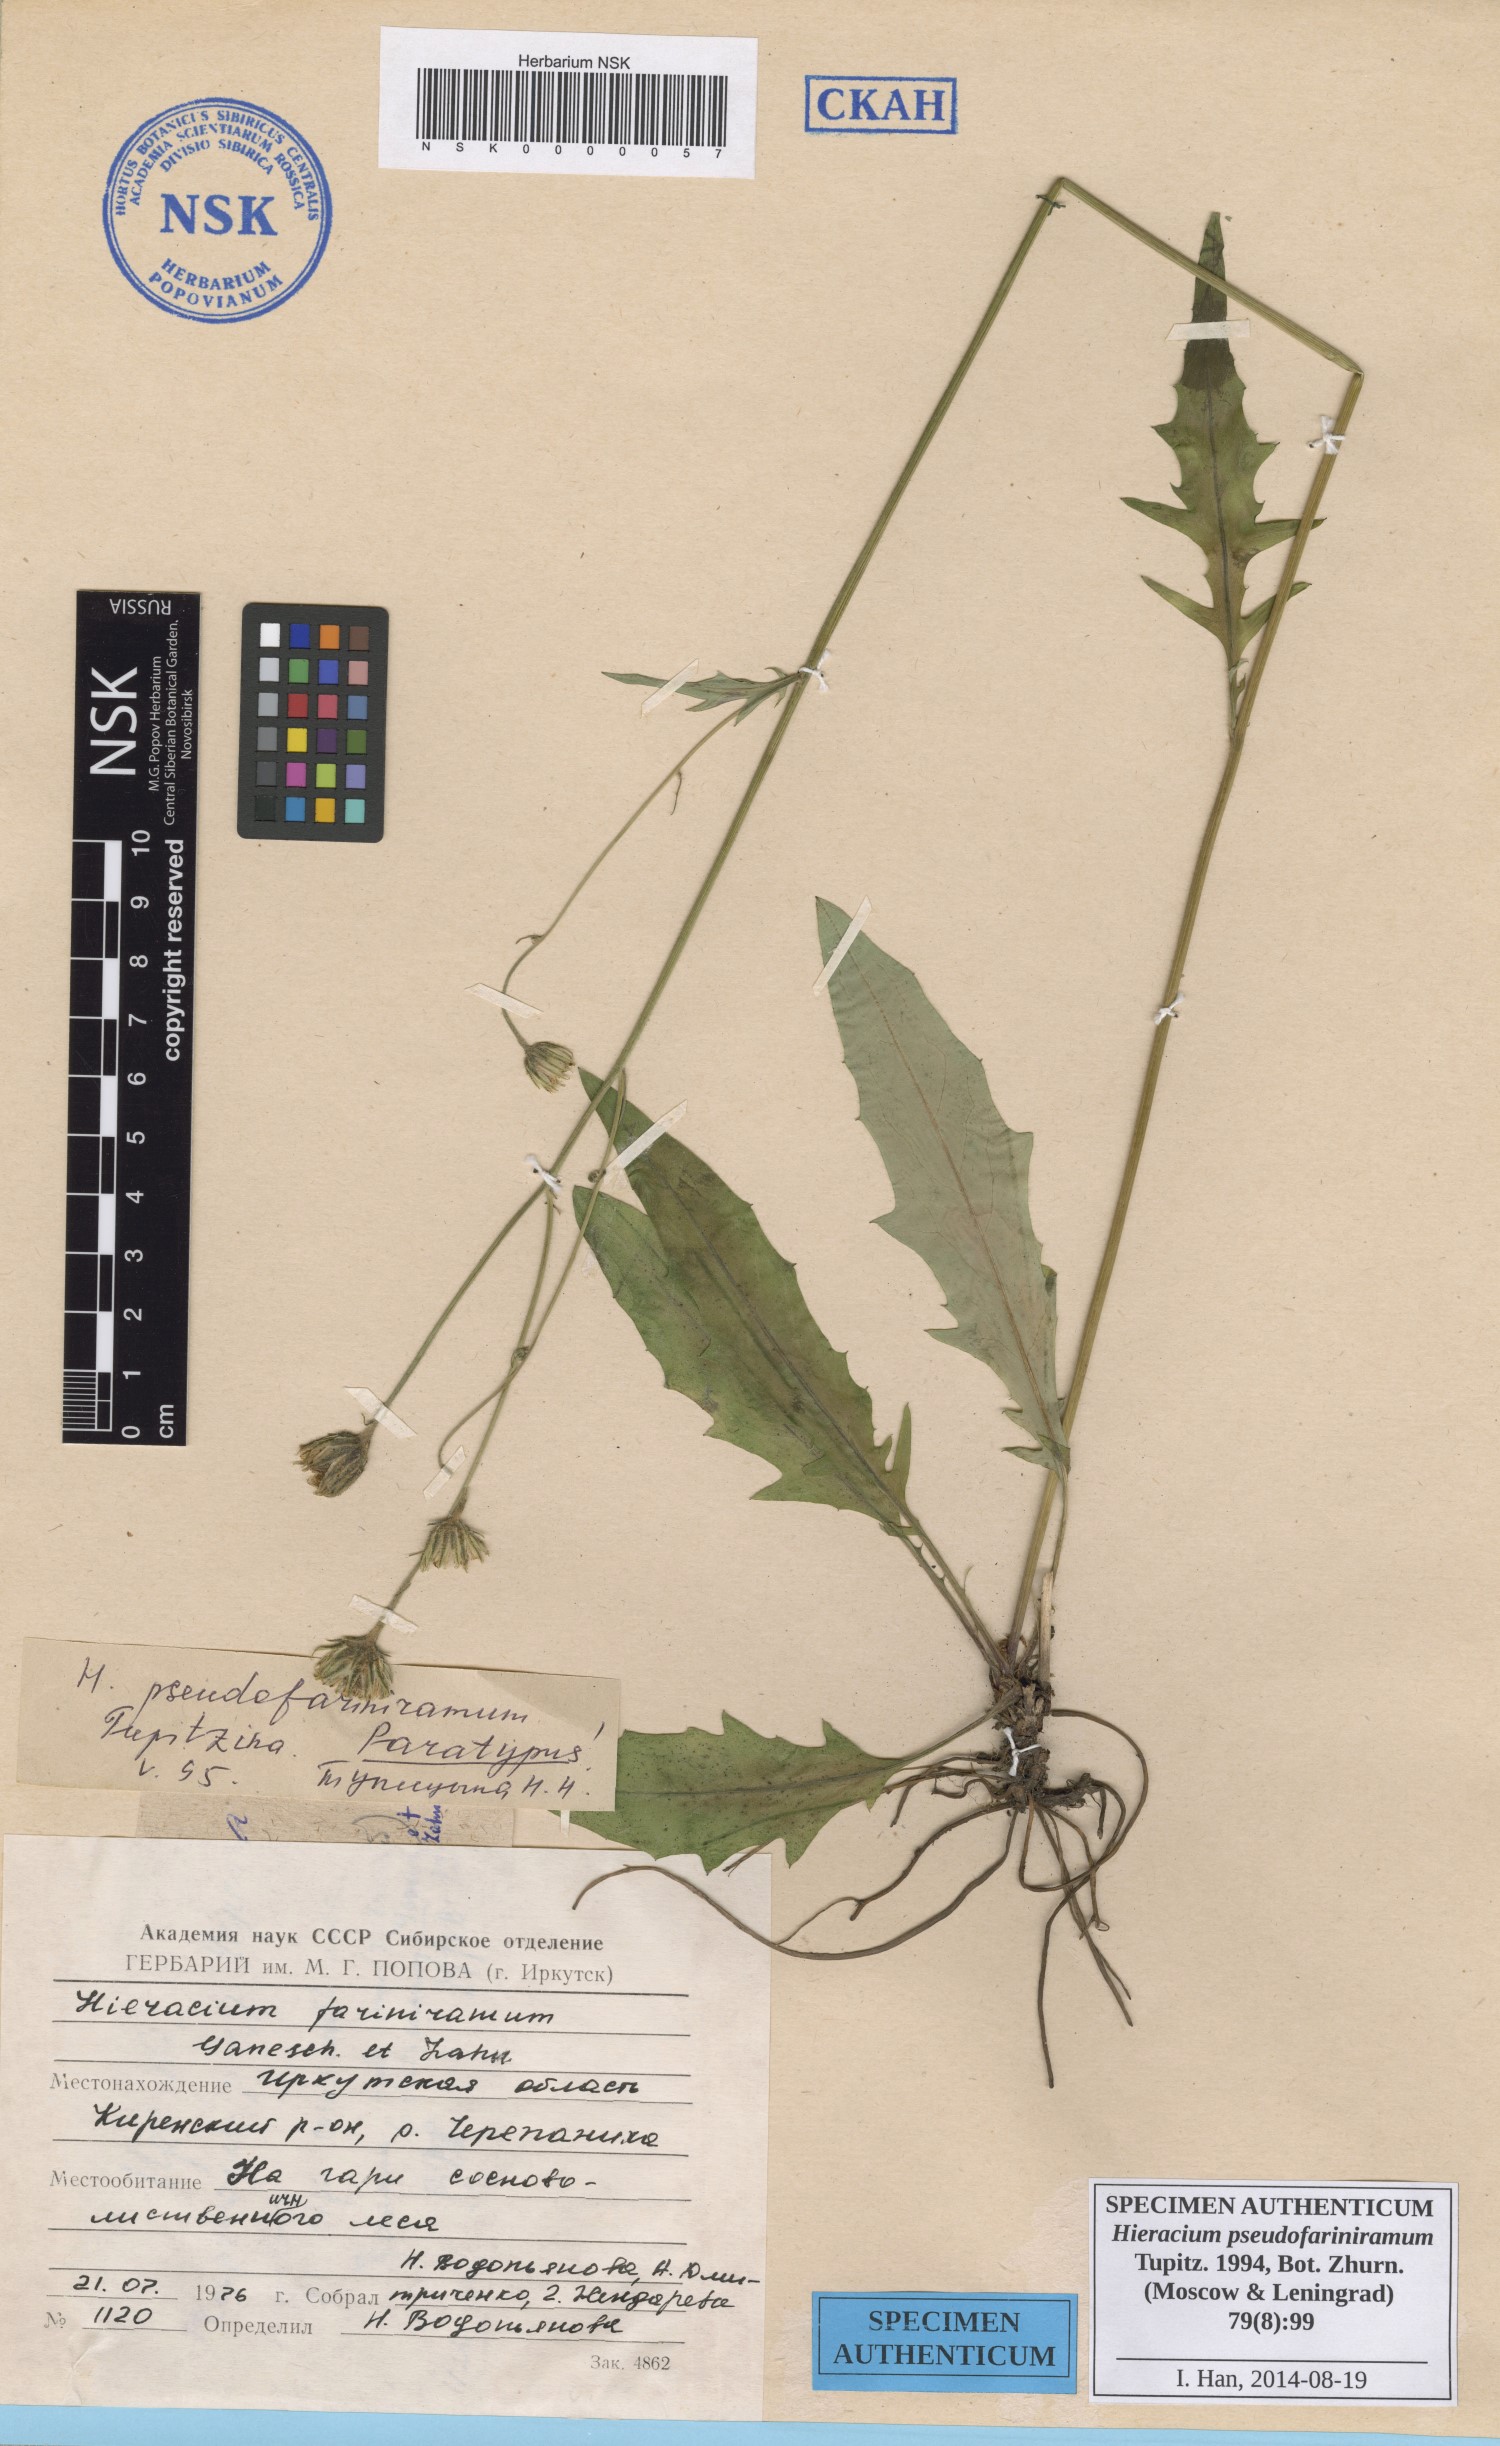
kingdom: Plantae
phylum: Tracheophyta
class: Magnoliopsida
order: Asterales
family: Asteraceae
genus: Hieracium
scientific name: Hieracium pseudofariniramum
